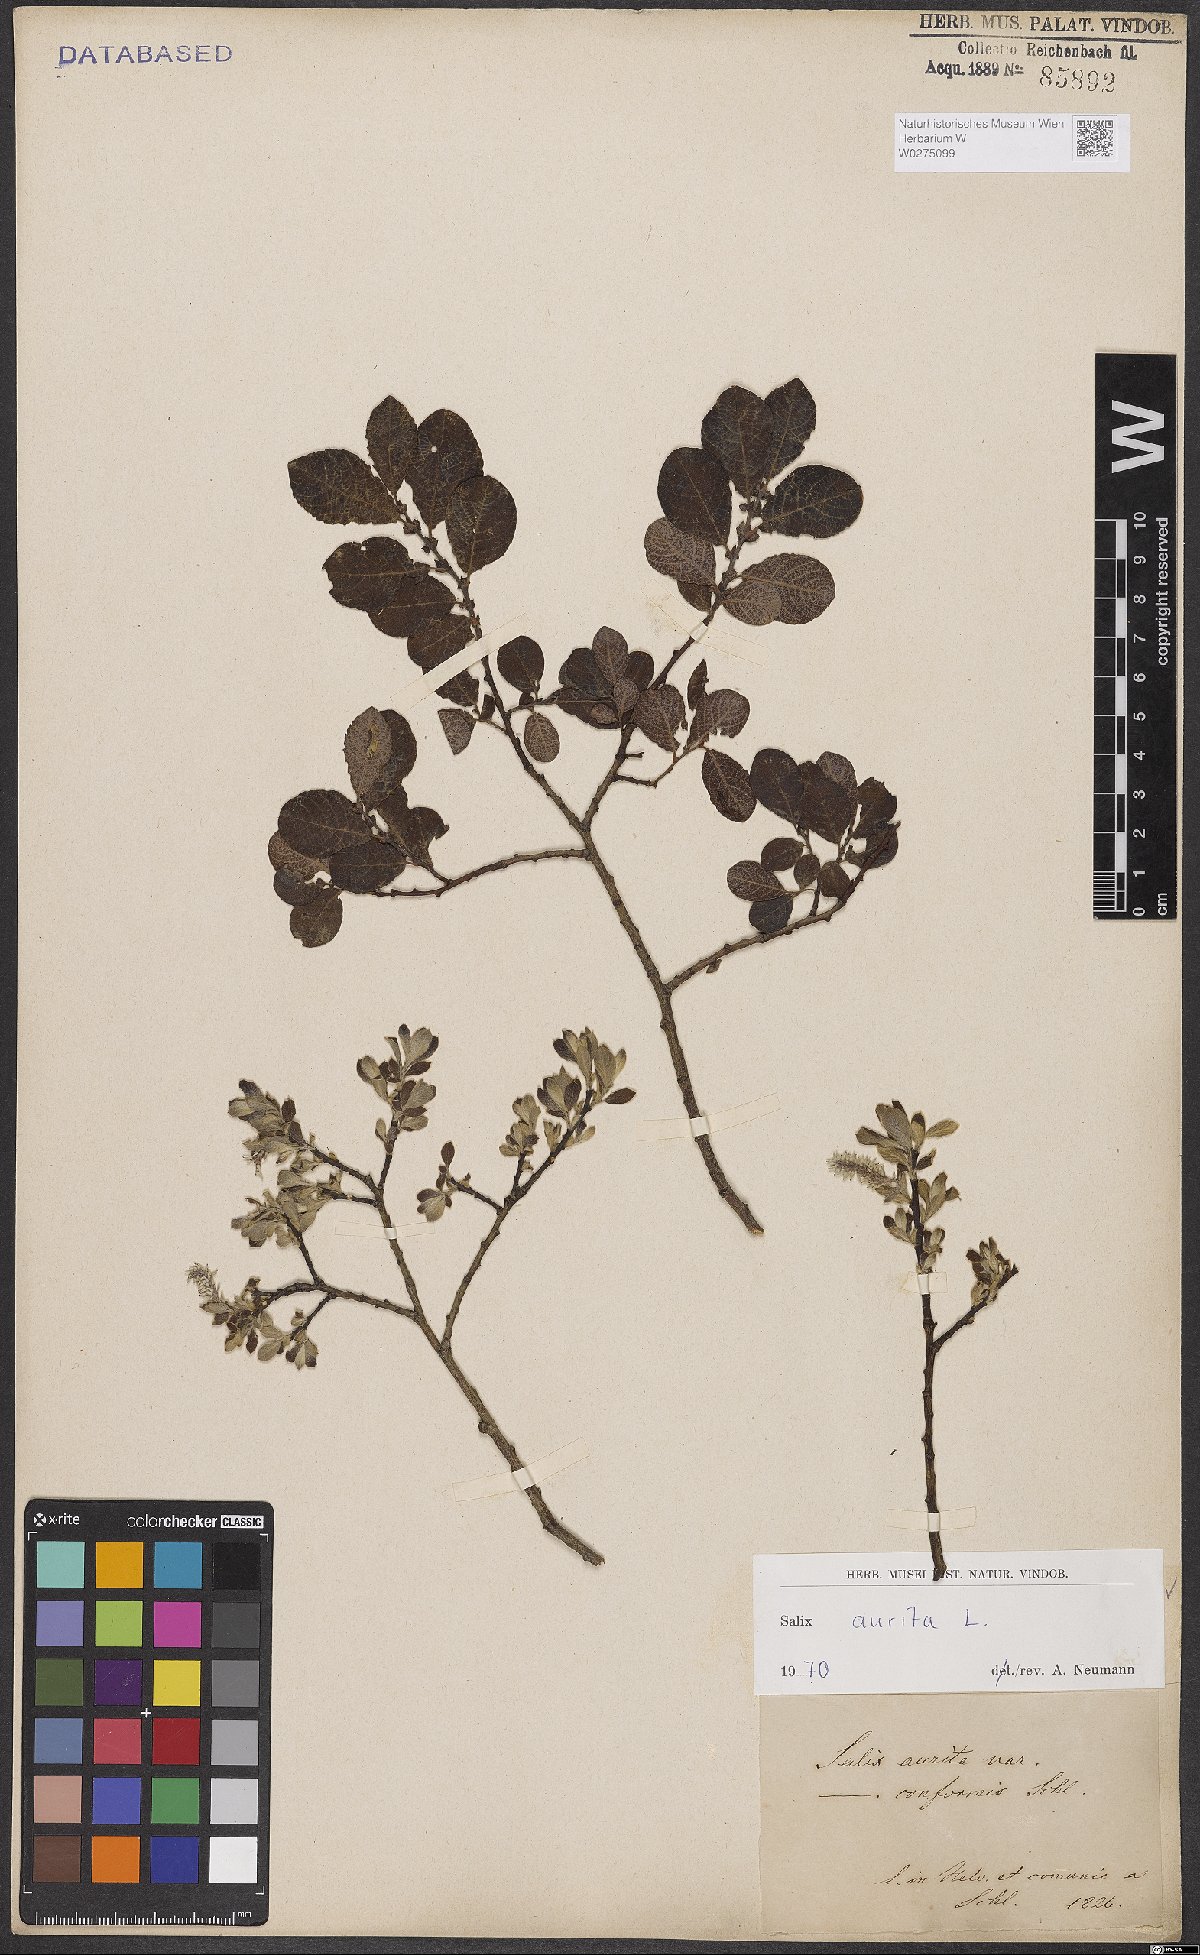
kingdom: Plantae
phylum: Tracheophyta
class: Magnoliopsida
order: Malpighiales
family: Salicaceae
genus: Salix
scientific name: Salix aurita
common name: Eared willow
